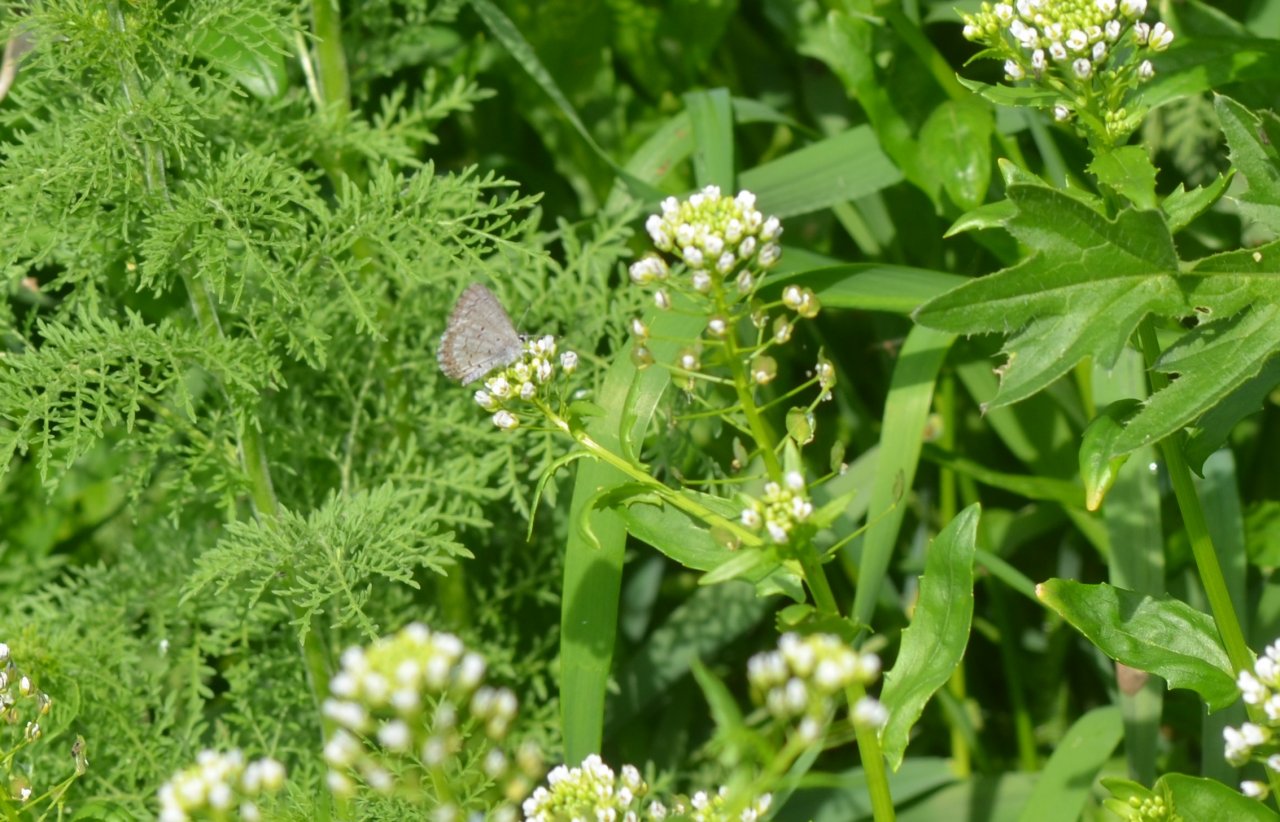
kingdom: Animalia
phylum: Arthropoda
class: Insecta
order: Lepidoptera
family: Lycaenidae
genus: Celastrina
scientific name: Celastrina lucia
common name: Northern Spring Azure
